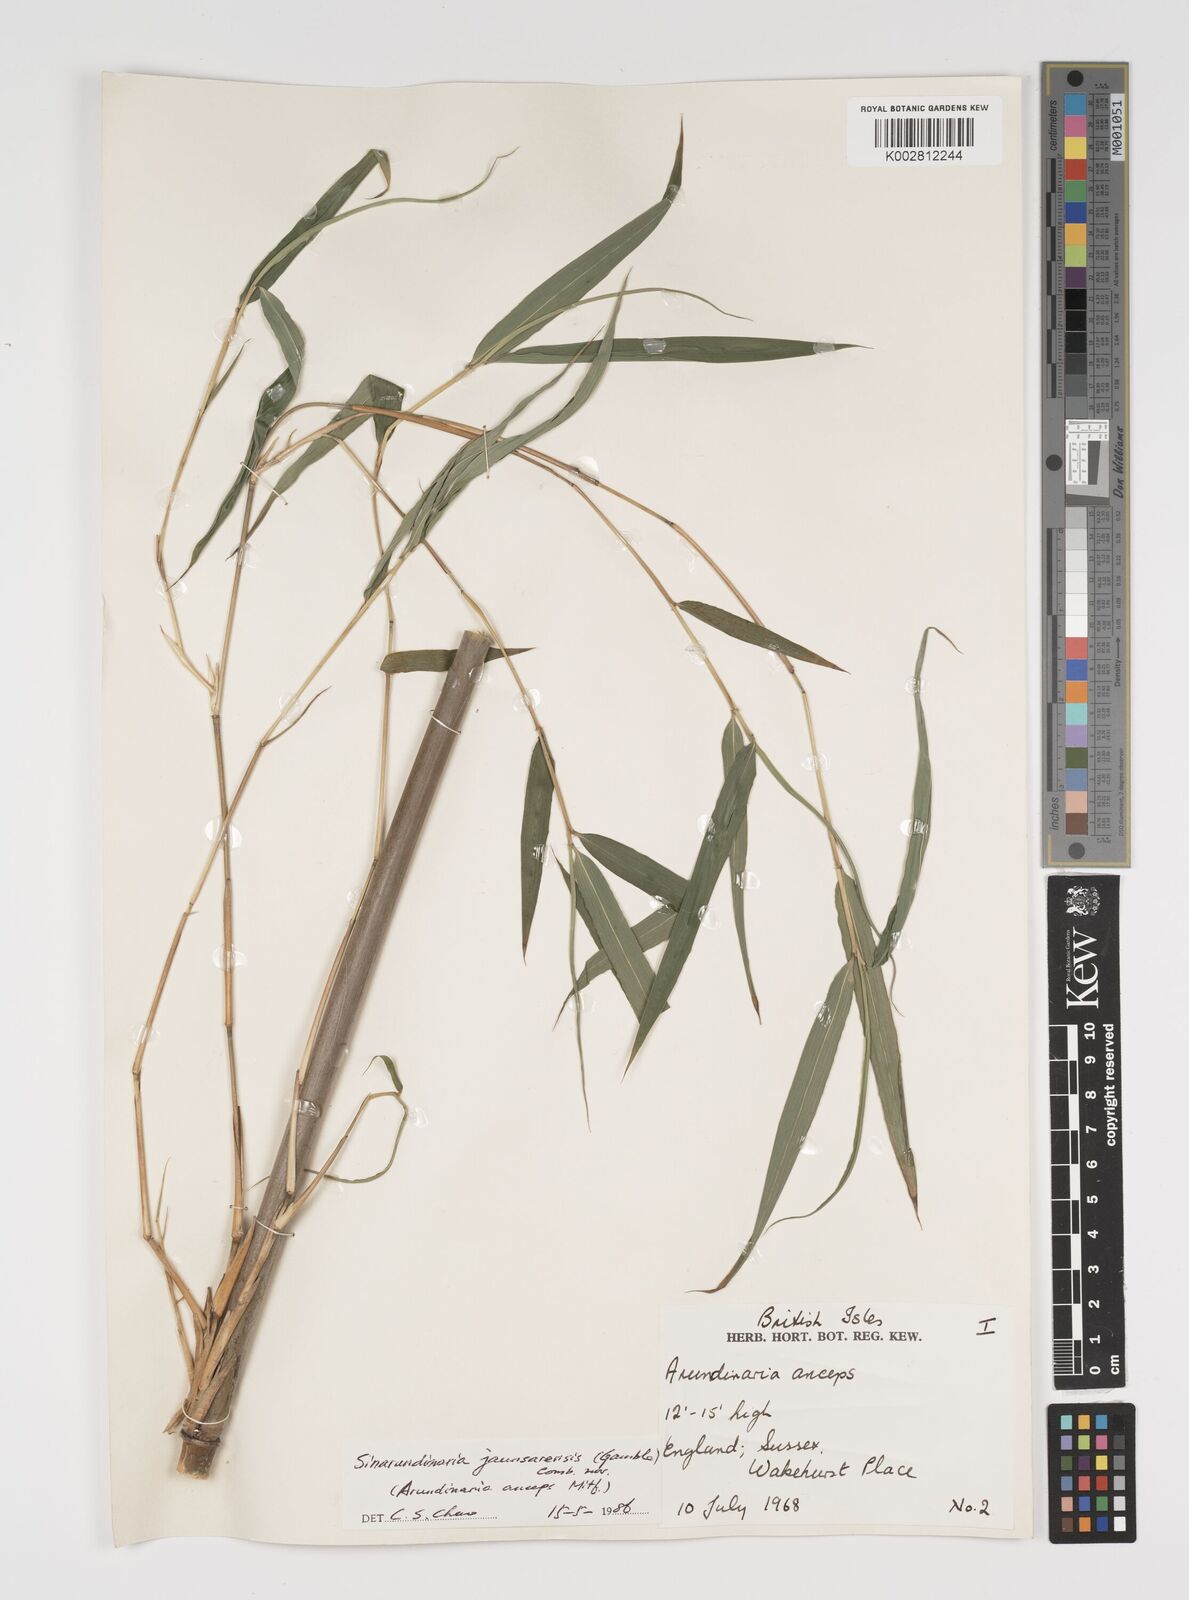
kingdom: Plantae
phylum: Tracheophyta
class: Liliopsida
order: Poales
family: Poaceae
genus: Yushania
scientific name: Yushania
